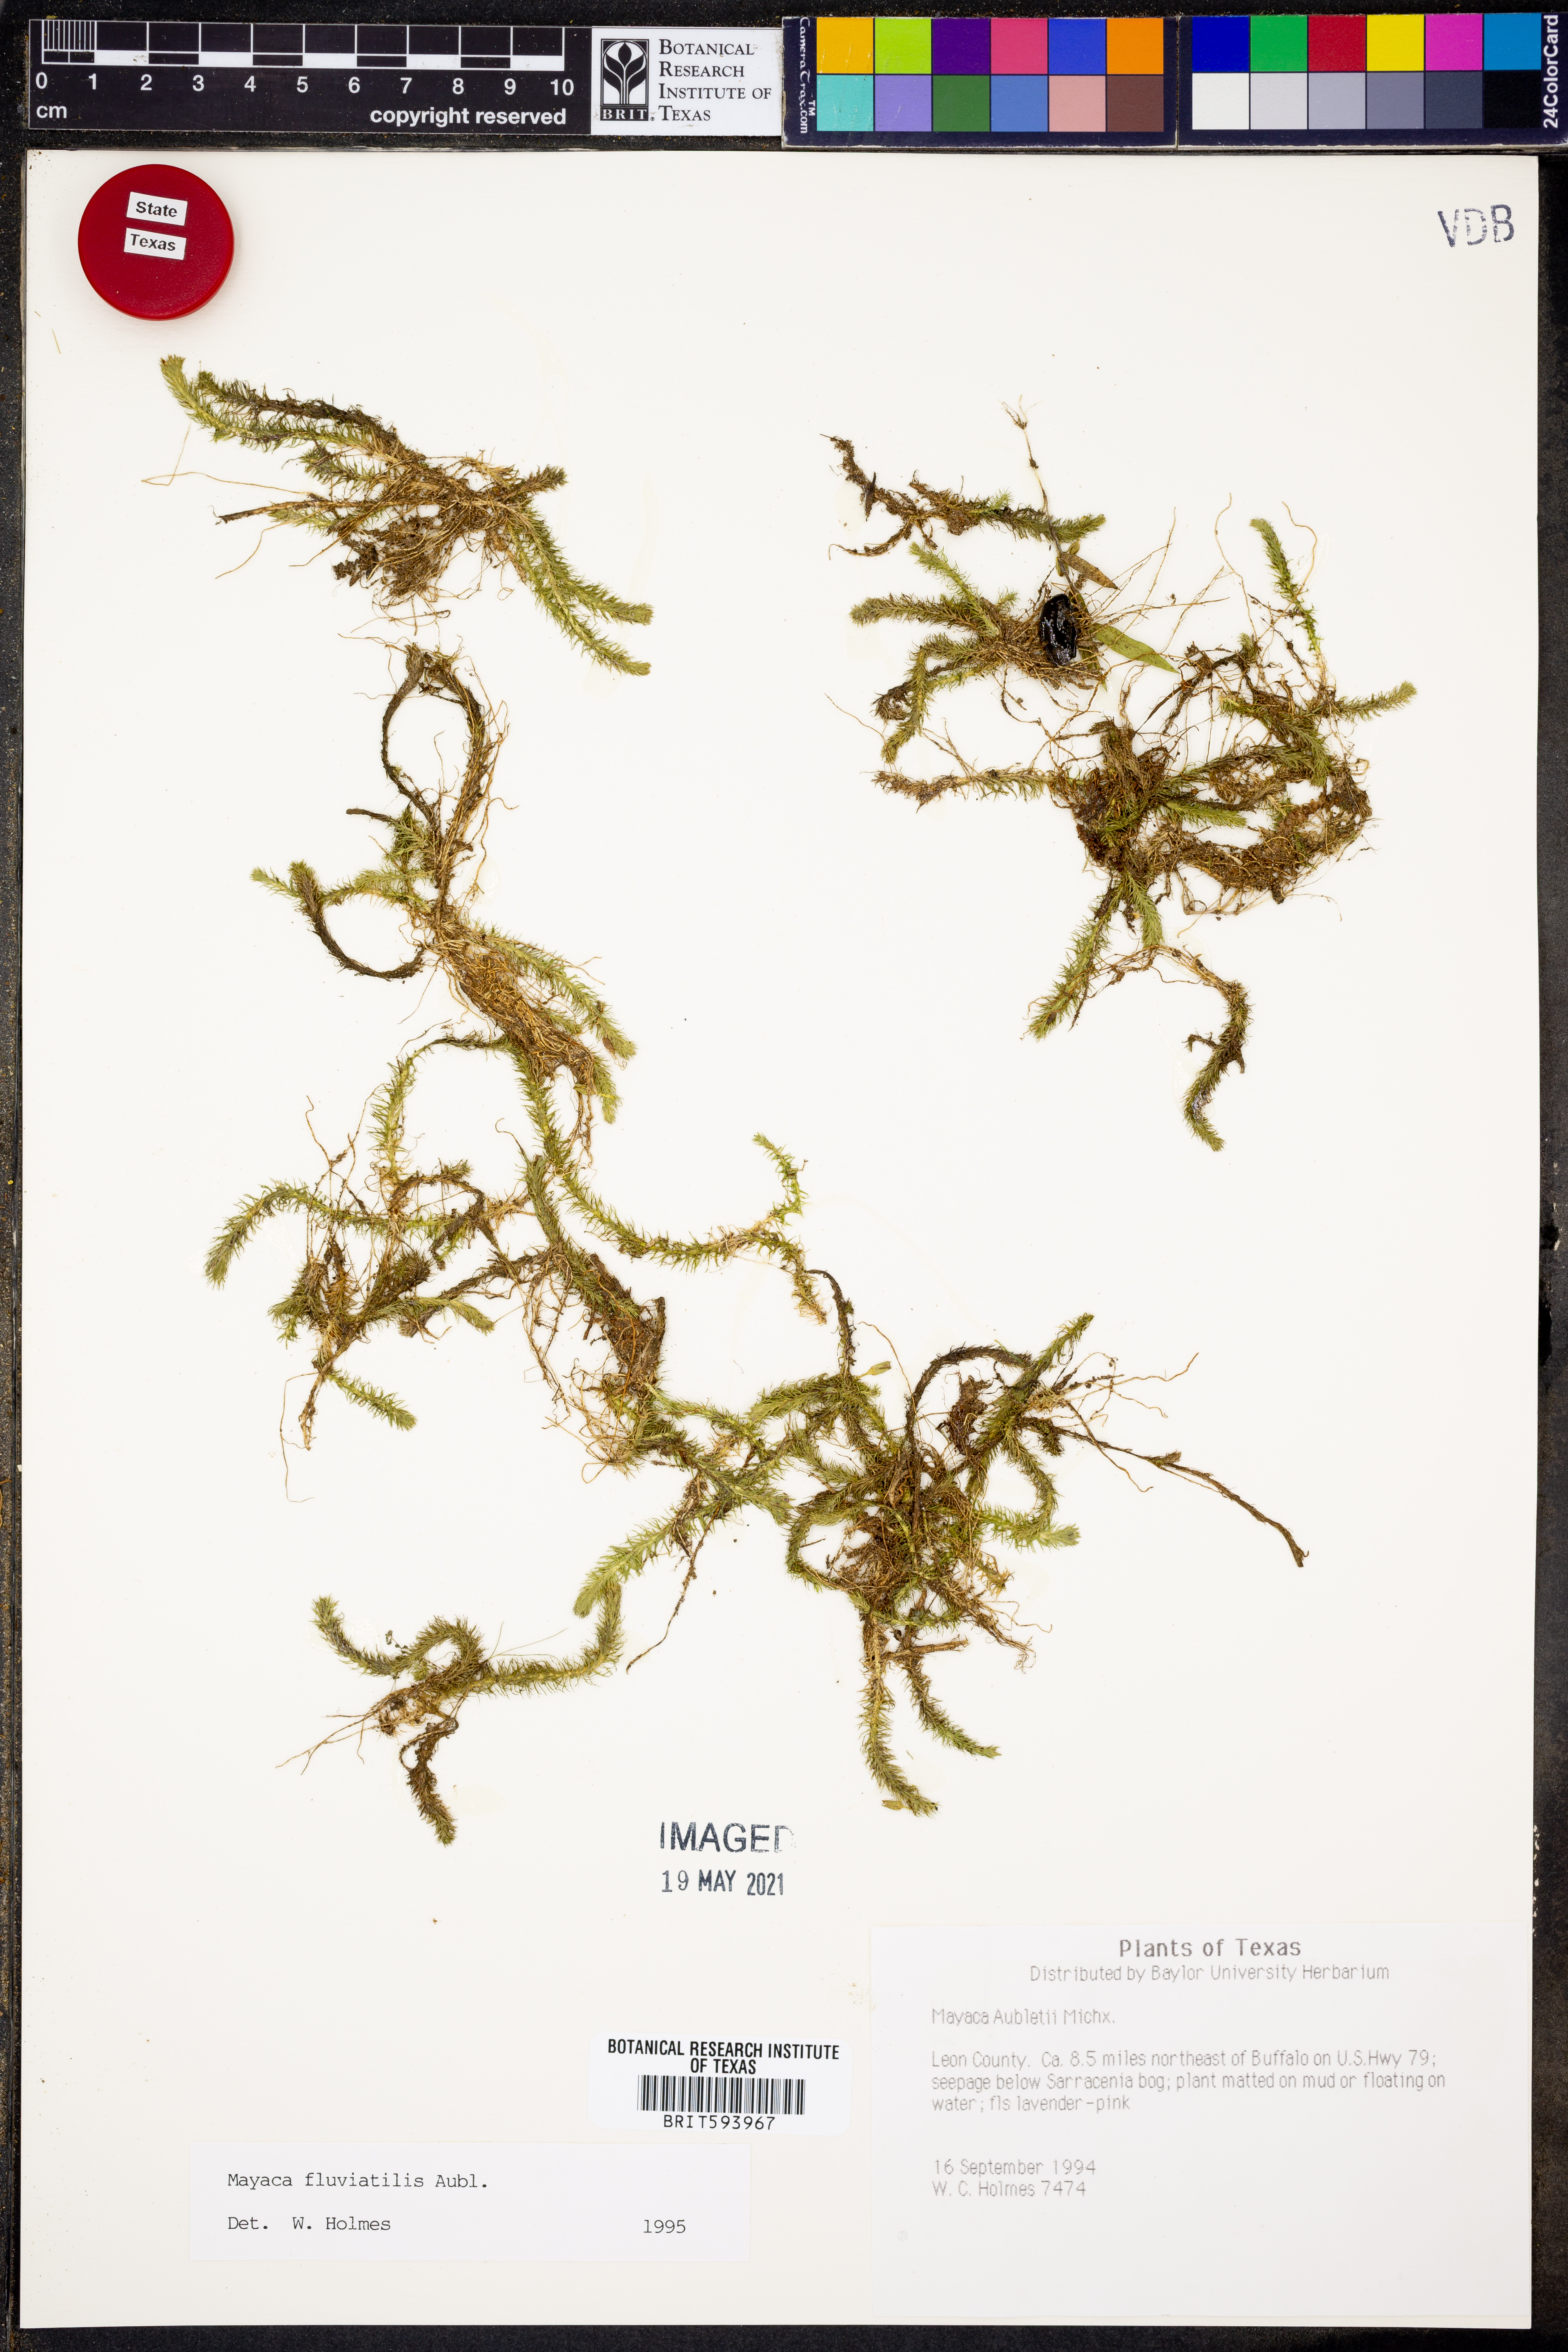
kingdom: Plantae
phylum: Tracheophyta
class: Liliopsida
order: Poales
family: Mayacaceae
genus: Mayaca
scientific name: Mayaca fluviatilis
